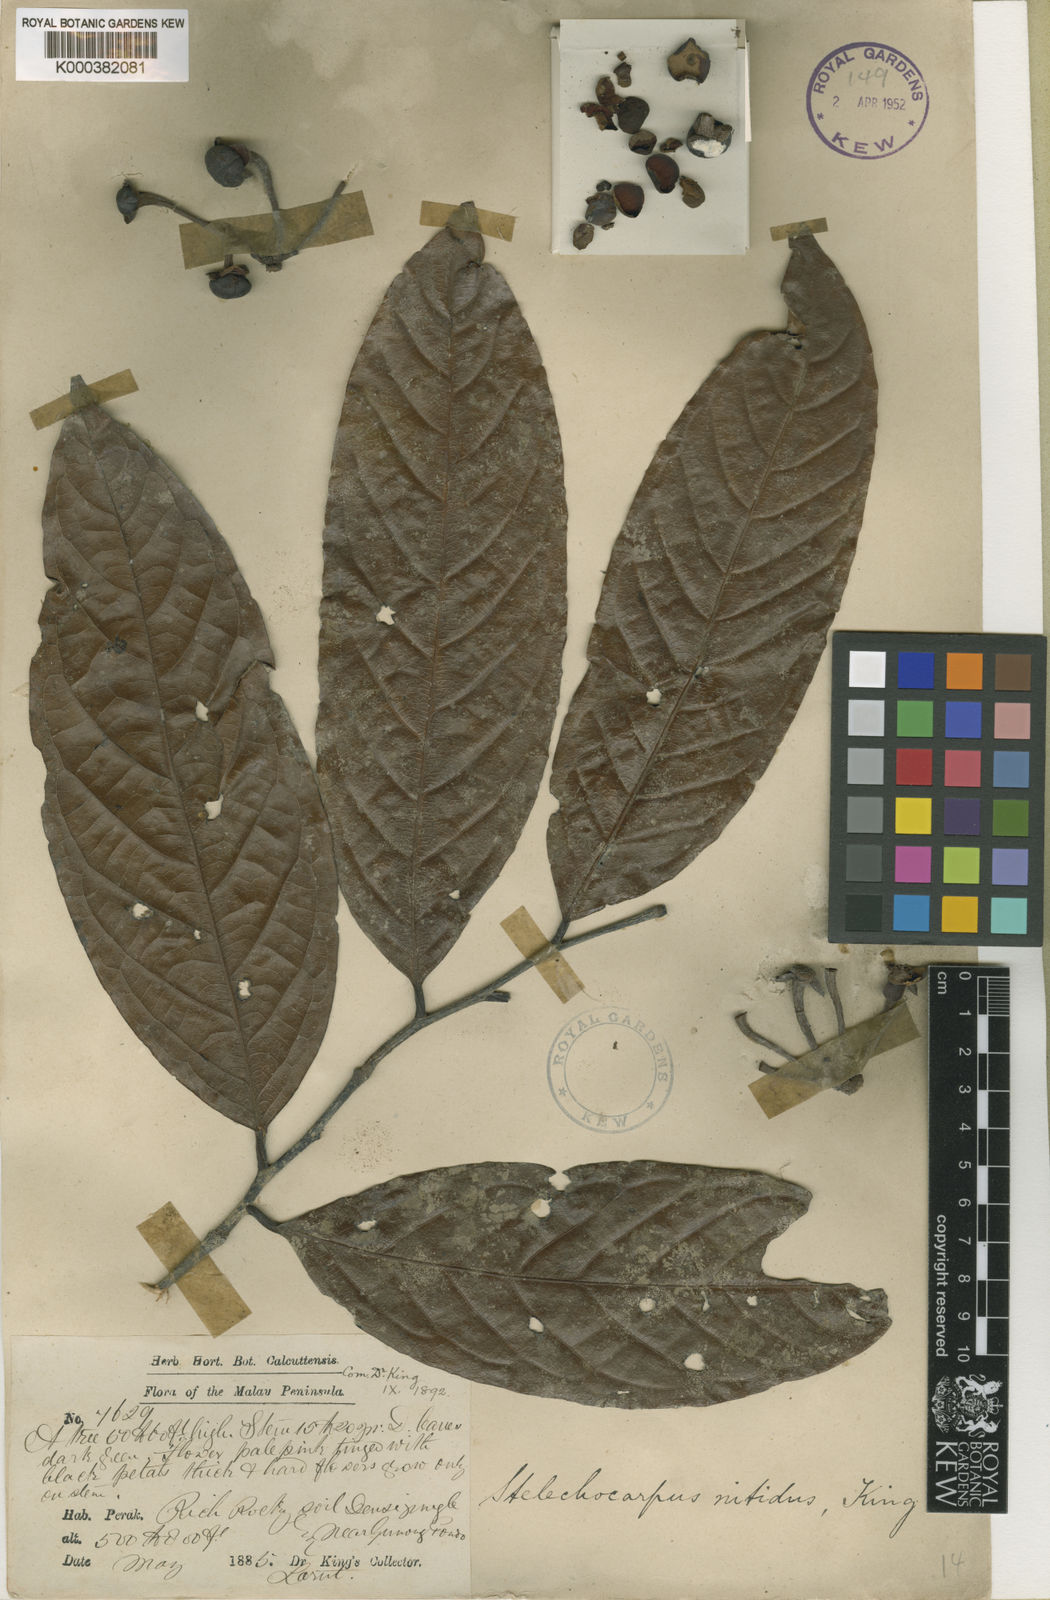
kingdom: Plantae
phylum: Tracheophyta
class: Magnoliopsida
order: Magnoliales
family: Annonaceae
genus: Stelechocarpus
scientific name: Stelechocarpus cauliflorus
